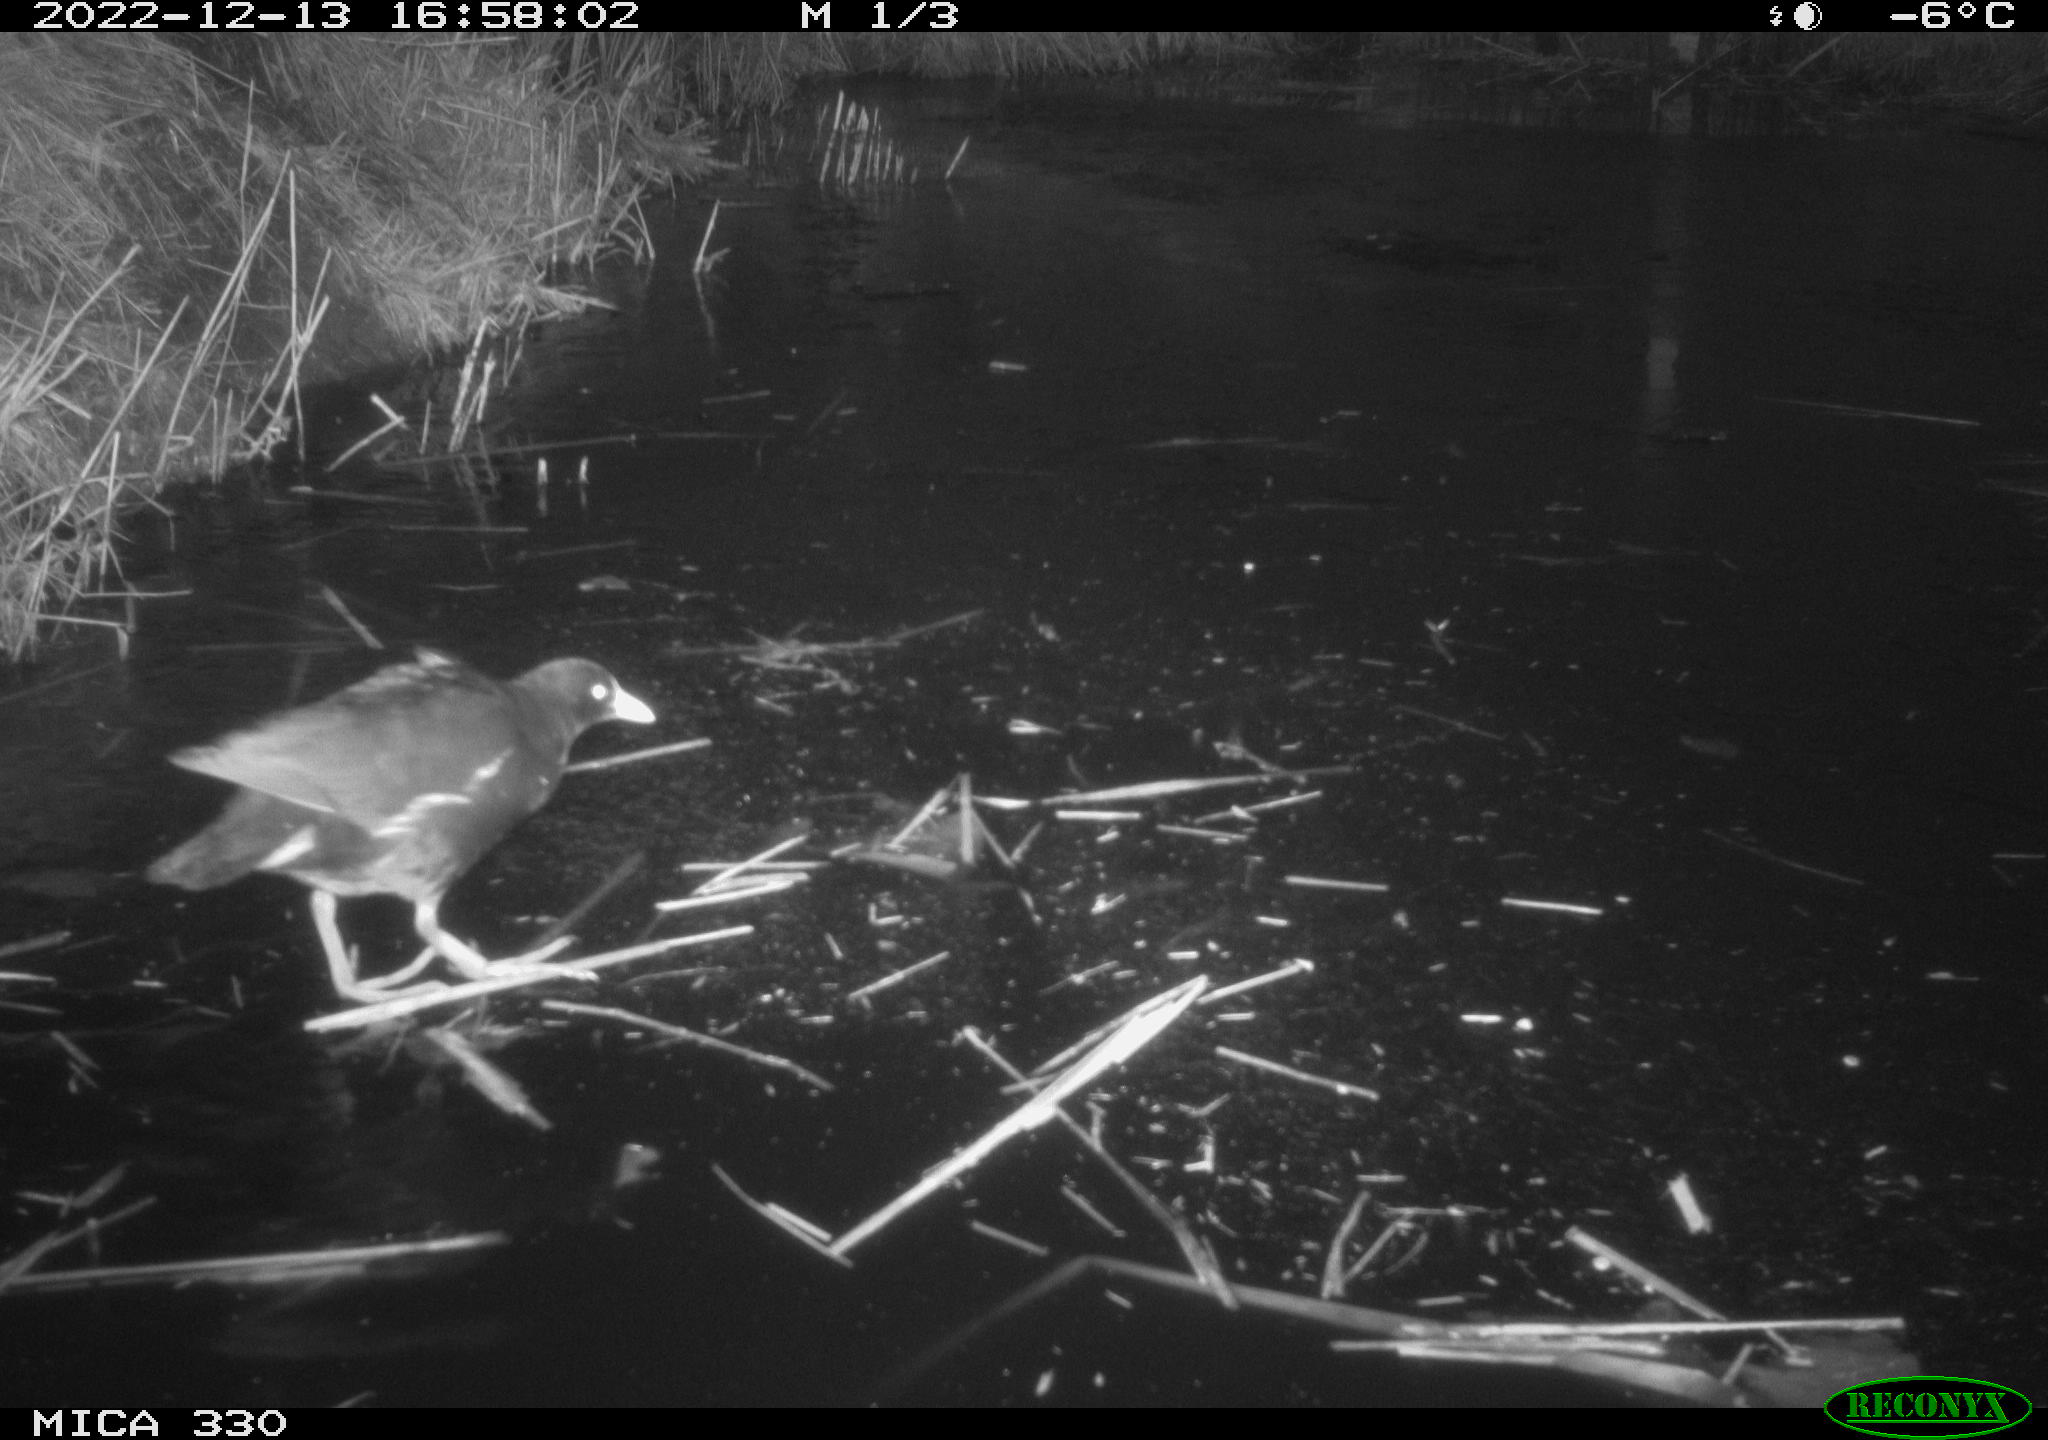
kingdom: Animalia
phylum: Chordata
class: Aves
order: Gruiformes
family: Rallidae
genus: Gallinula
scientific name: Gallinula chloropus
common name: Common moorhen
